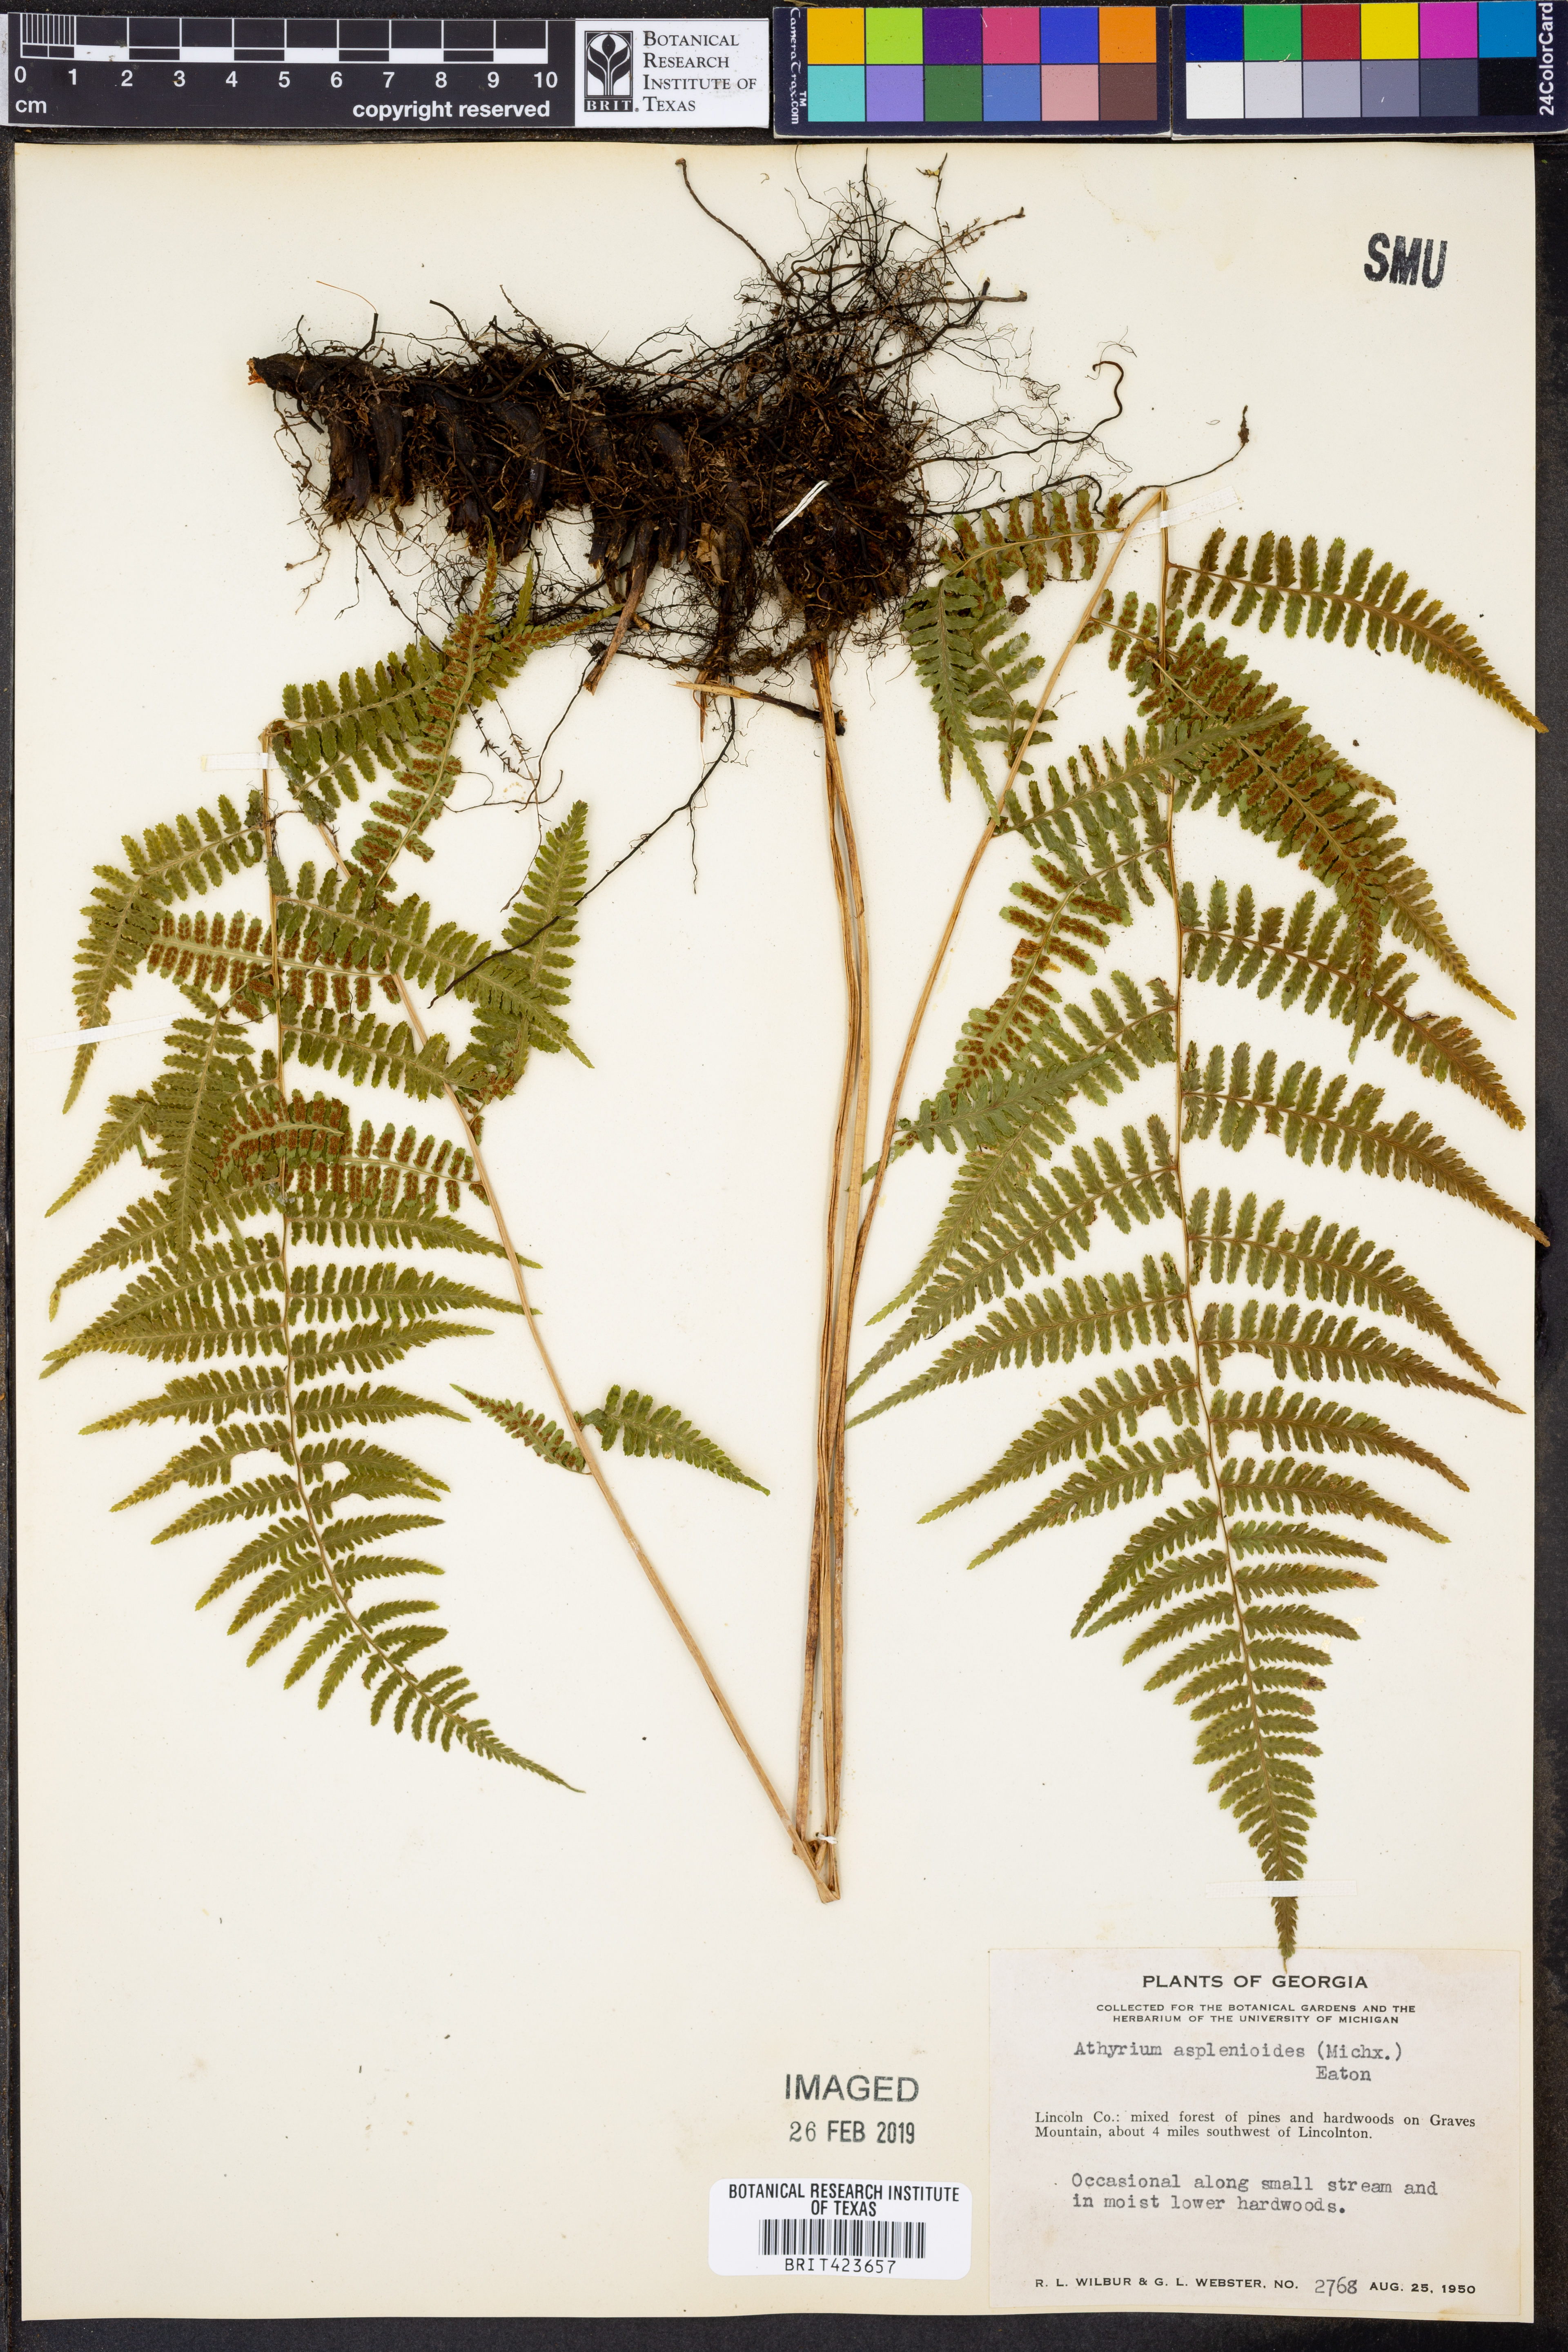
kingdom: Plantae
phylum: Tracheophyta
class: Polypodiopsida
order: Polypodiales
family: Athyriaceae
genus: Athyrium
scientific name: Athyrium asplenioides
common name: Southern lady fern
